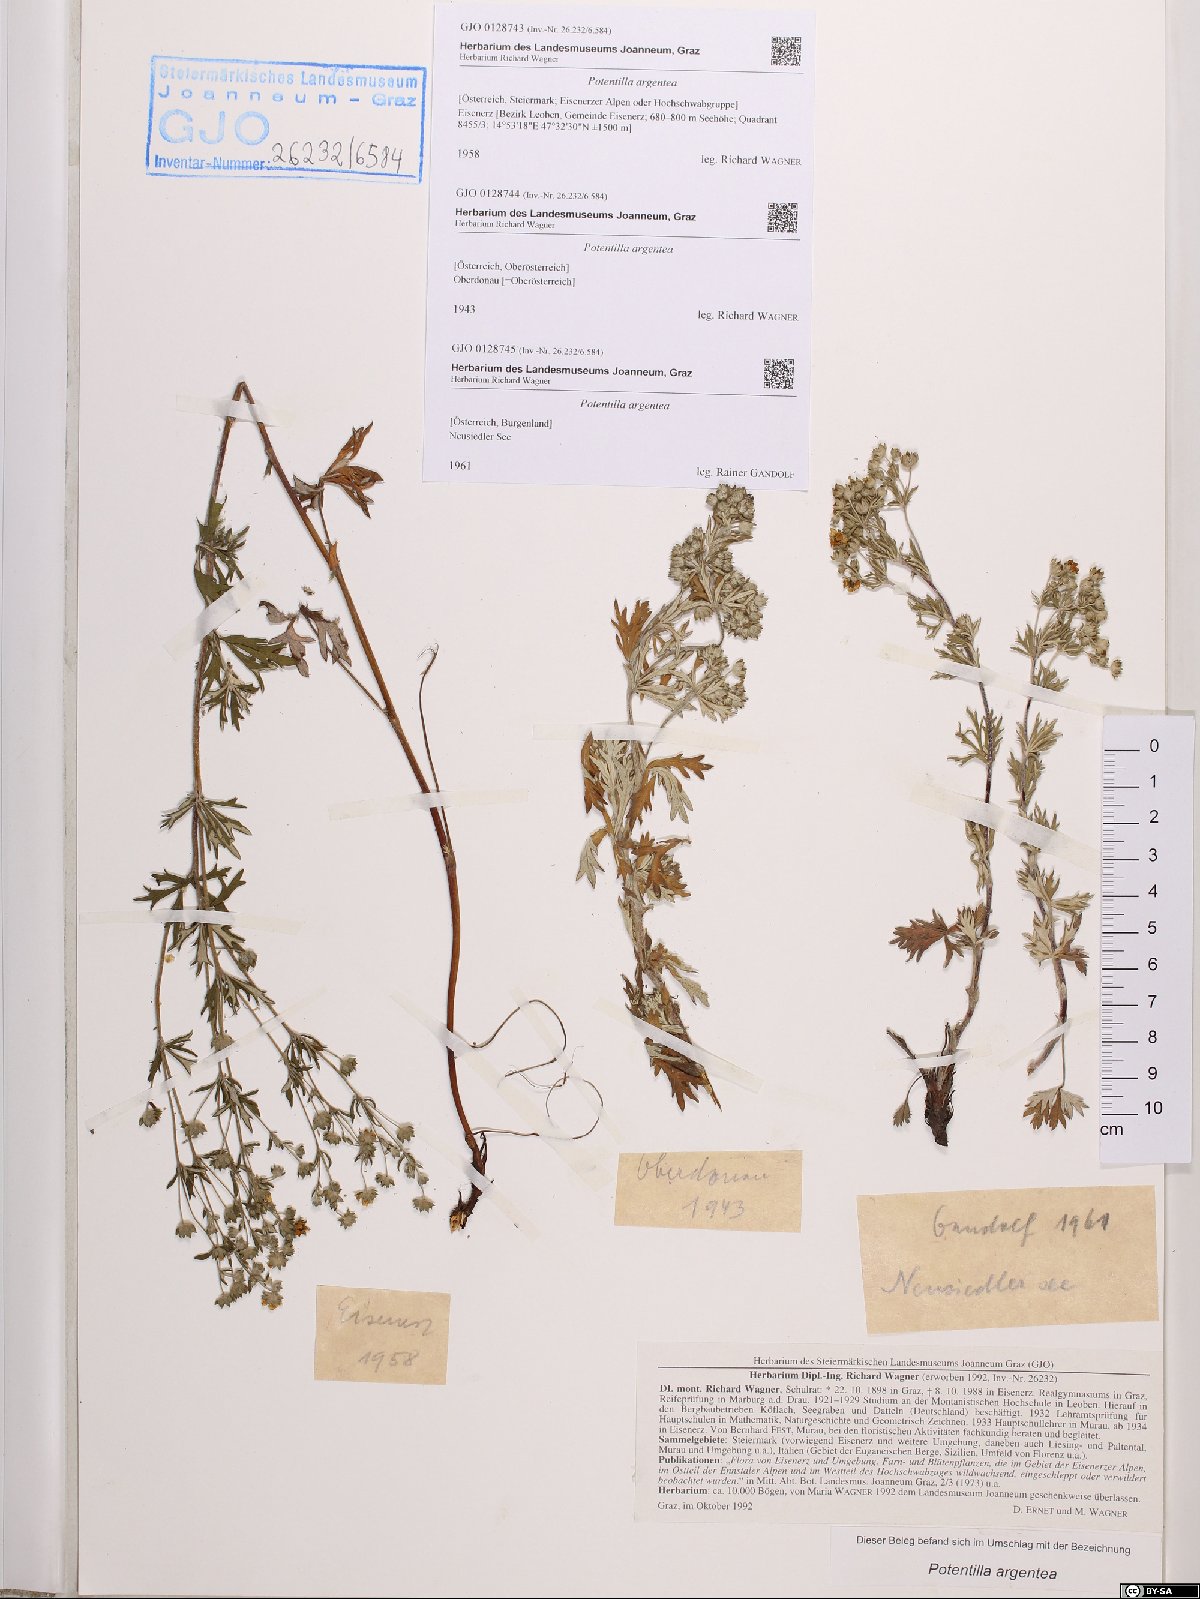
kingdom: Plantae
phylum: Tracheophyta
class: Magnoliopsida
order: Rosales
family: Rosaceae
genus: Potentilla
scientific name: Potentilla argentea
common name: Hoary cinquefoil
